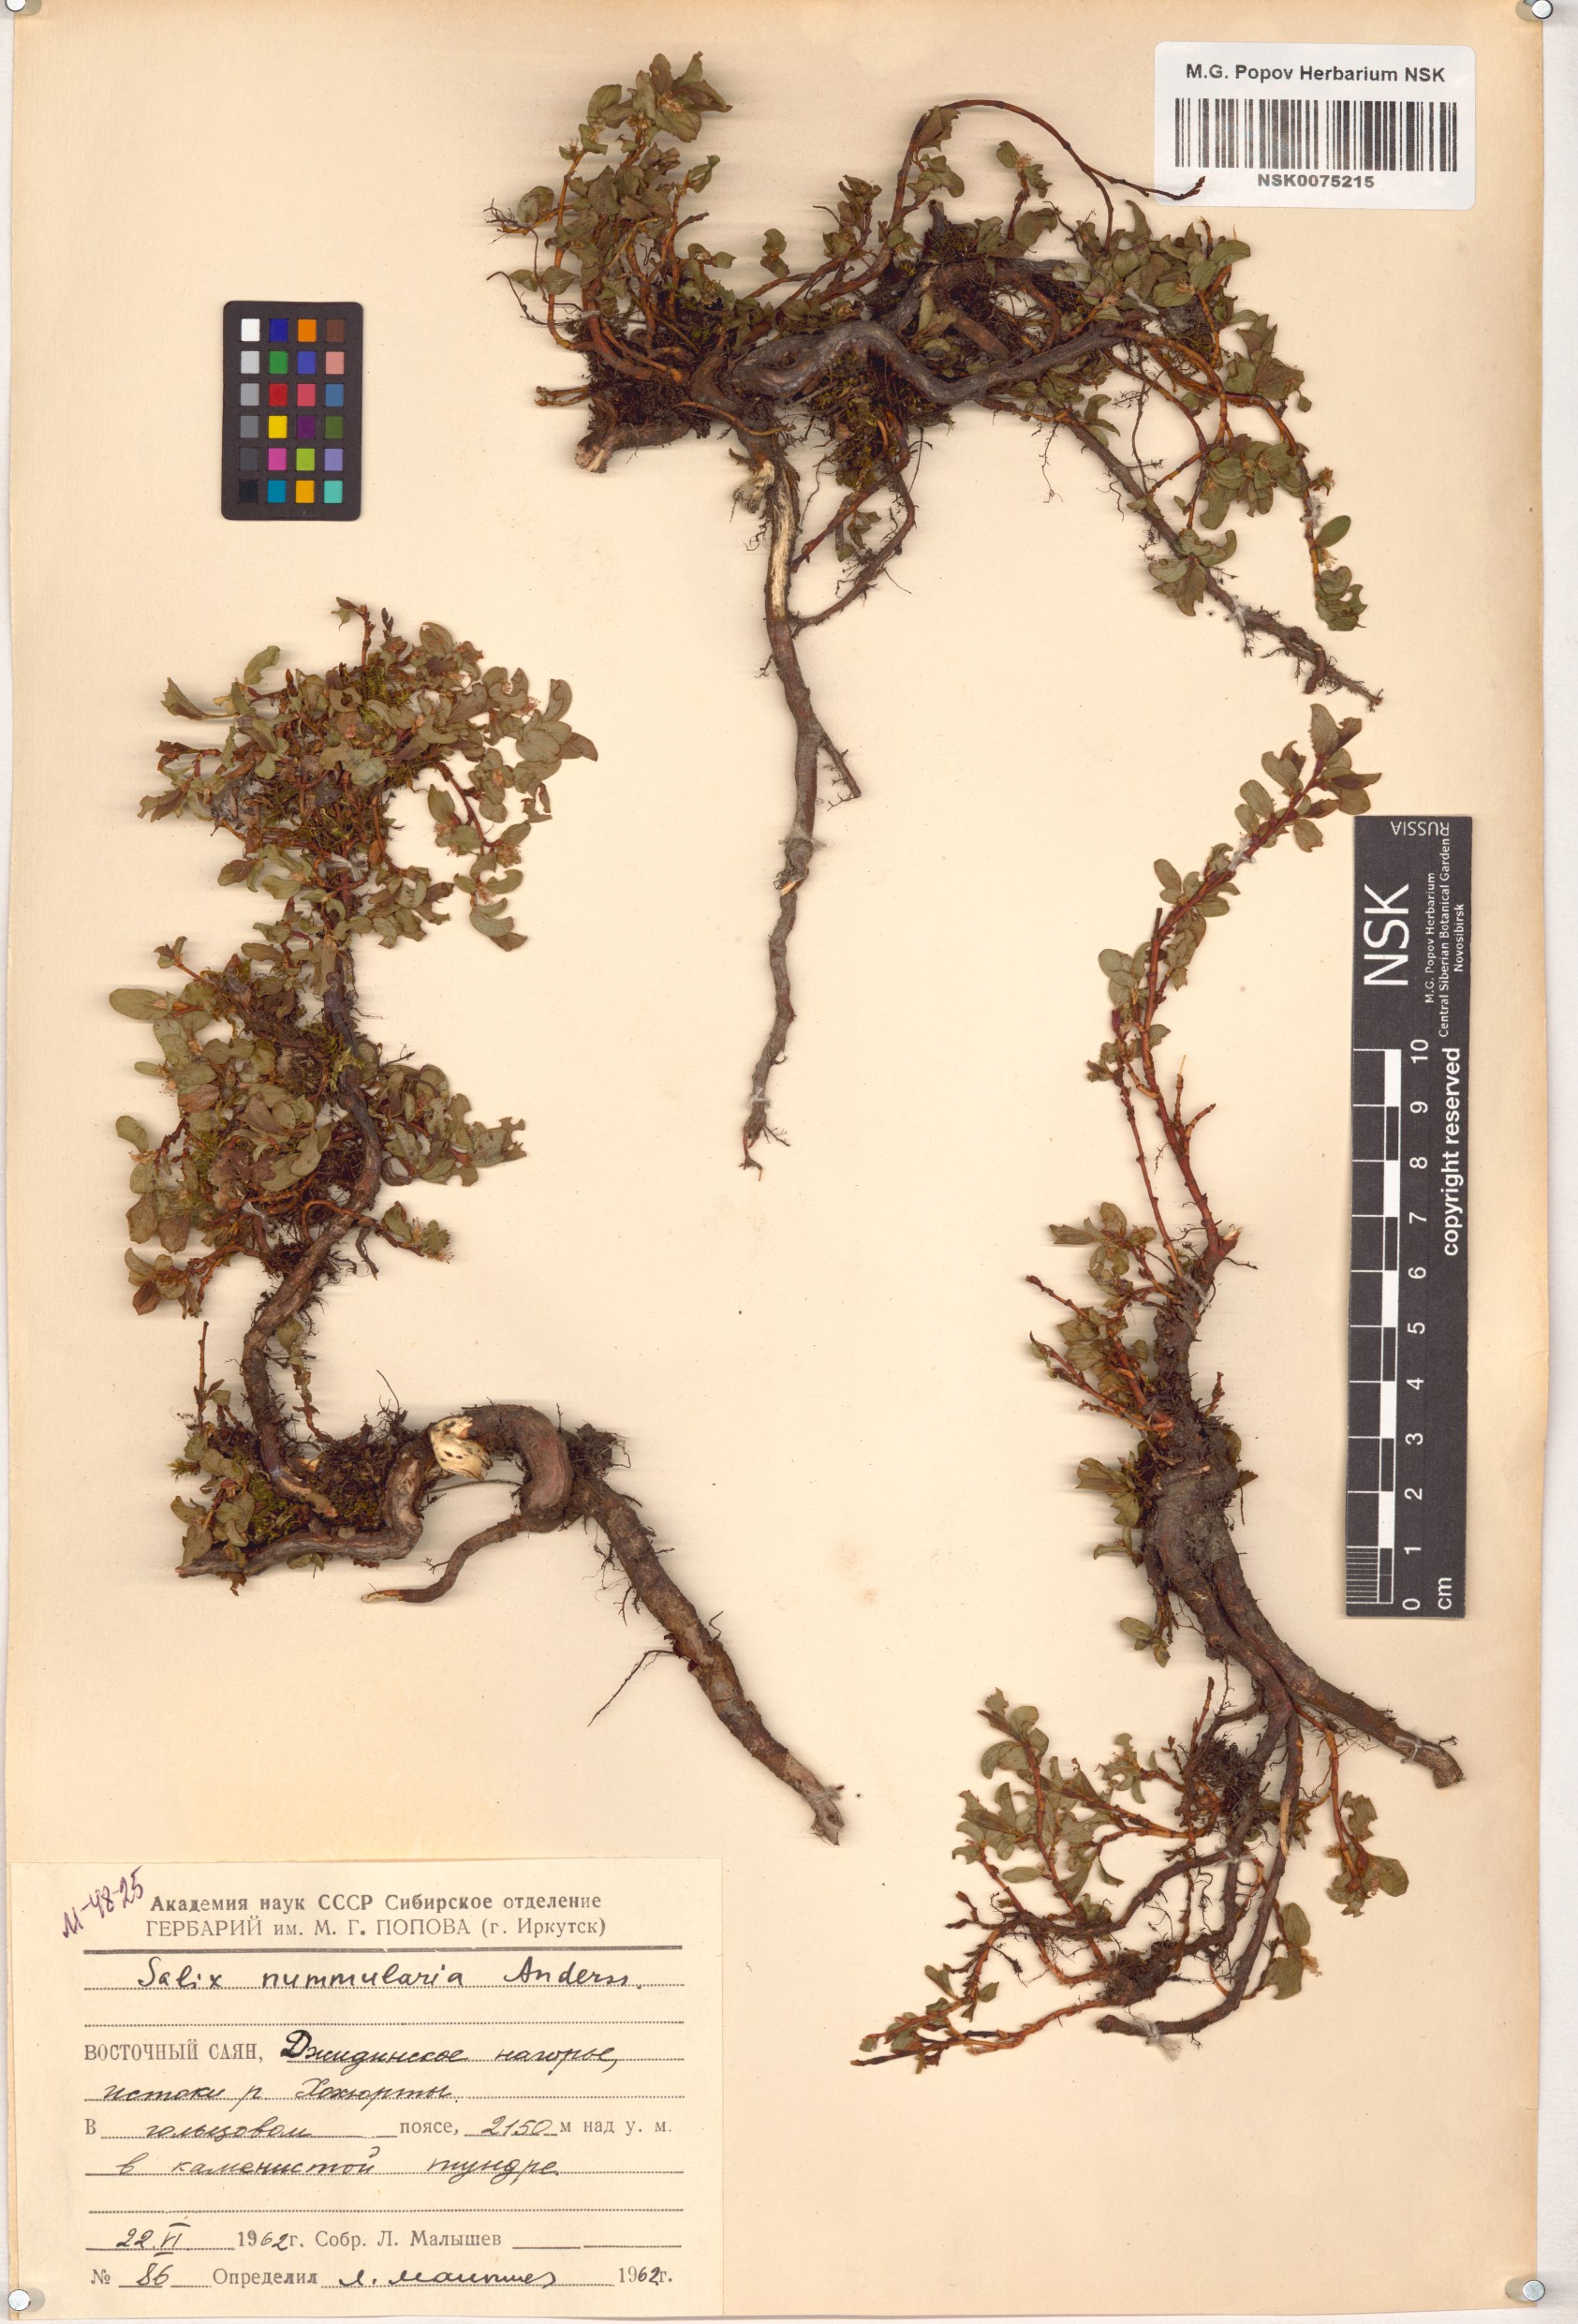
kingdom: Plantae
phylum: Tracheophyta
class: Magnoliopsida
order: Malpighiales
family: Salicaceae
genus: Salix
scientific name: Salix nummularia
